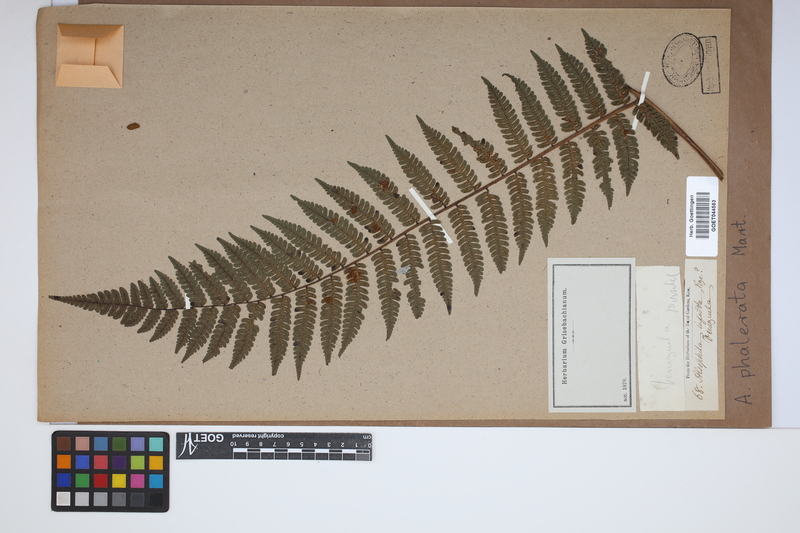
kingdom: Plantae
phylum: Tracheophyta
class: Polypodiopsida
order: Cyatheales
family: Cyatheaceae
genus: Cyathea
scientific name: Cyathea phalerata
